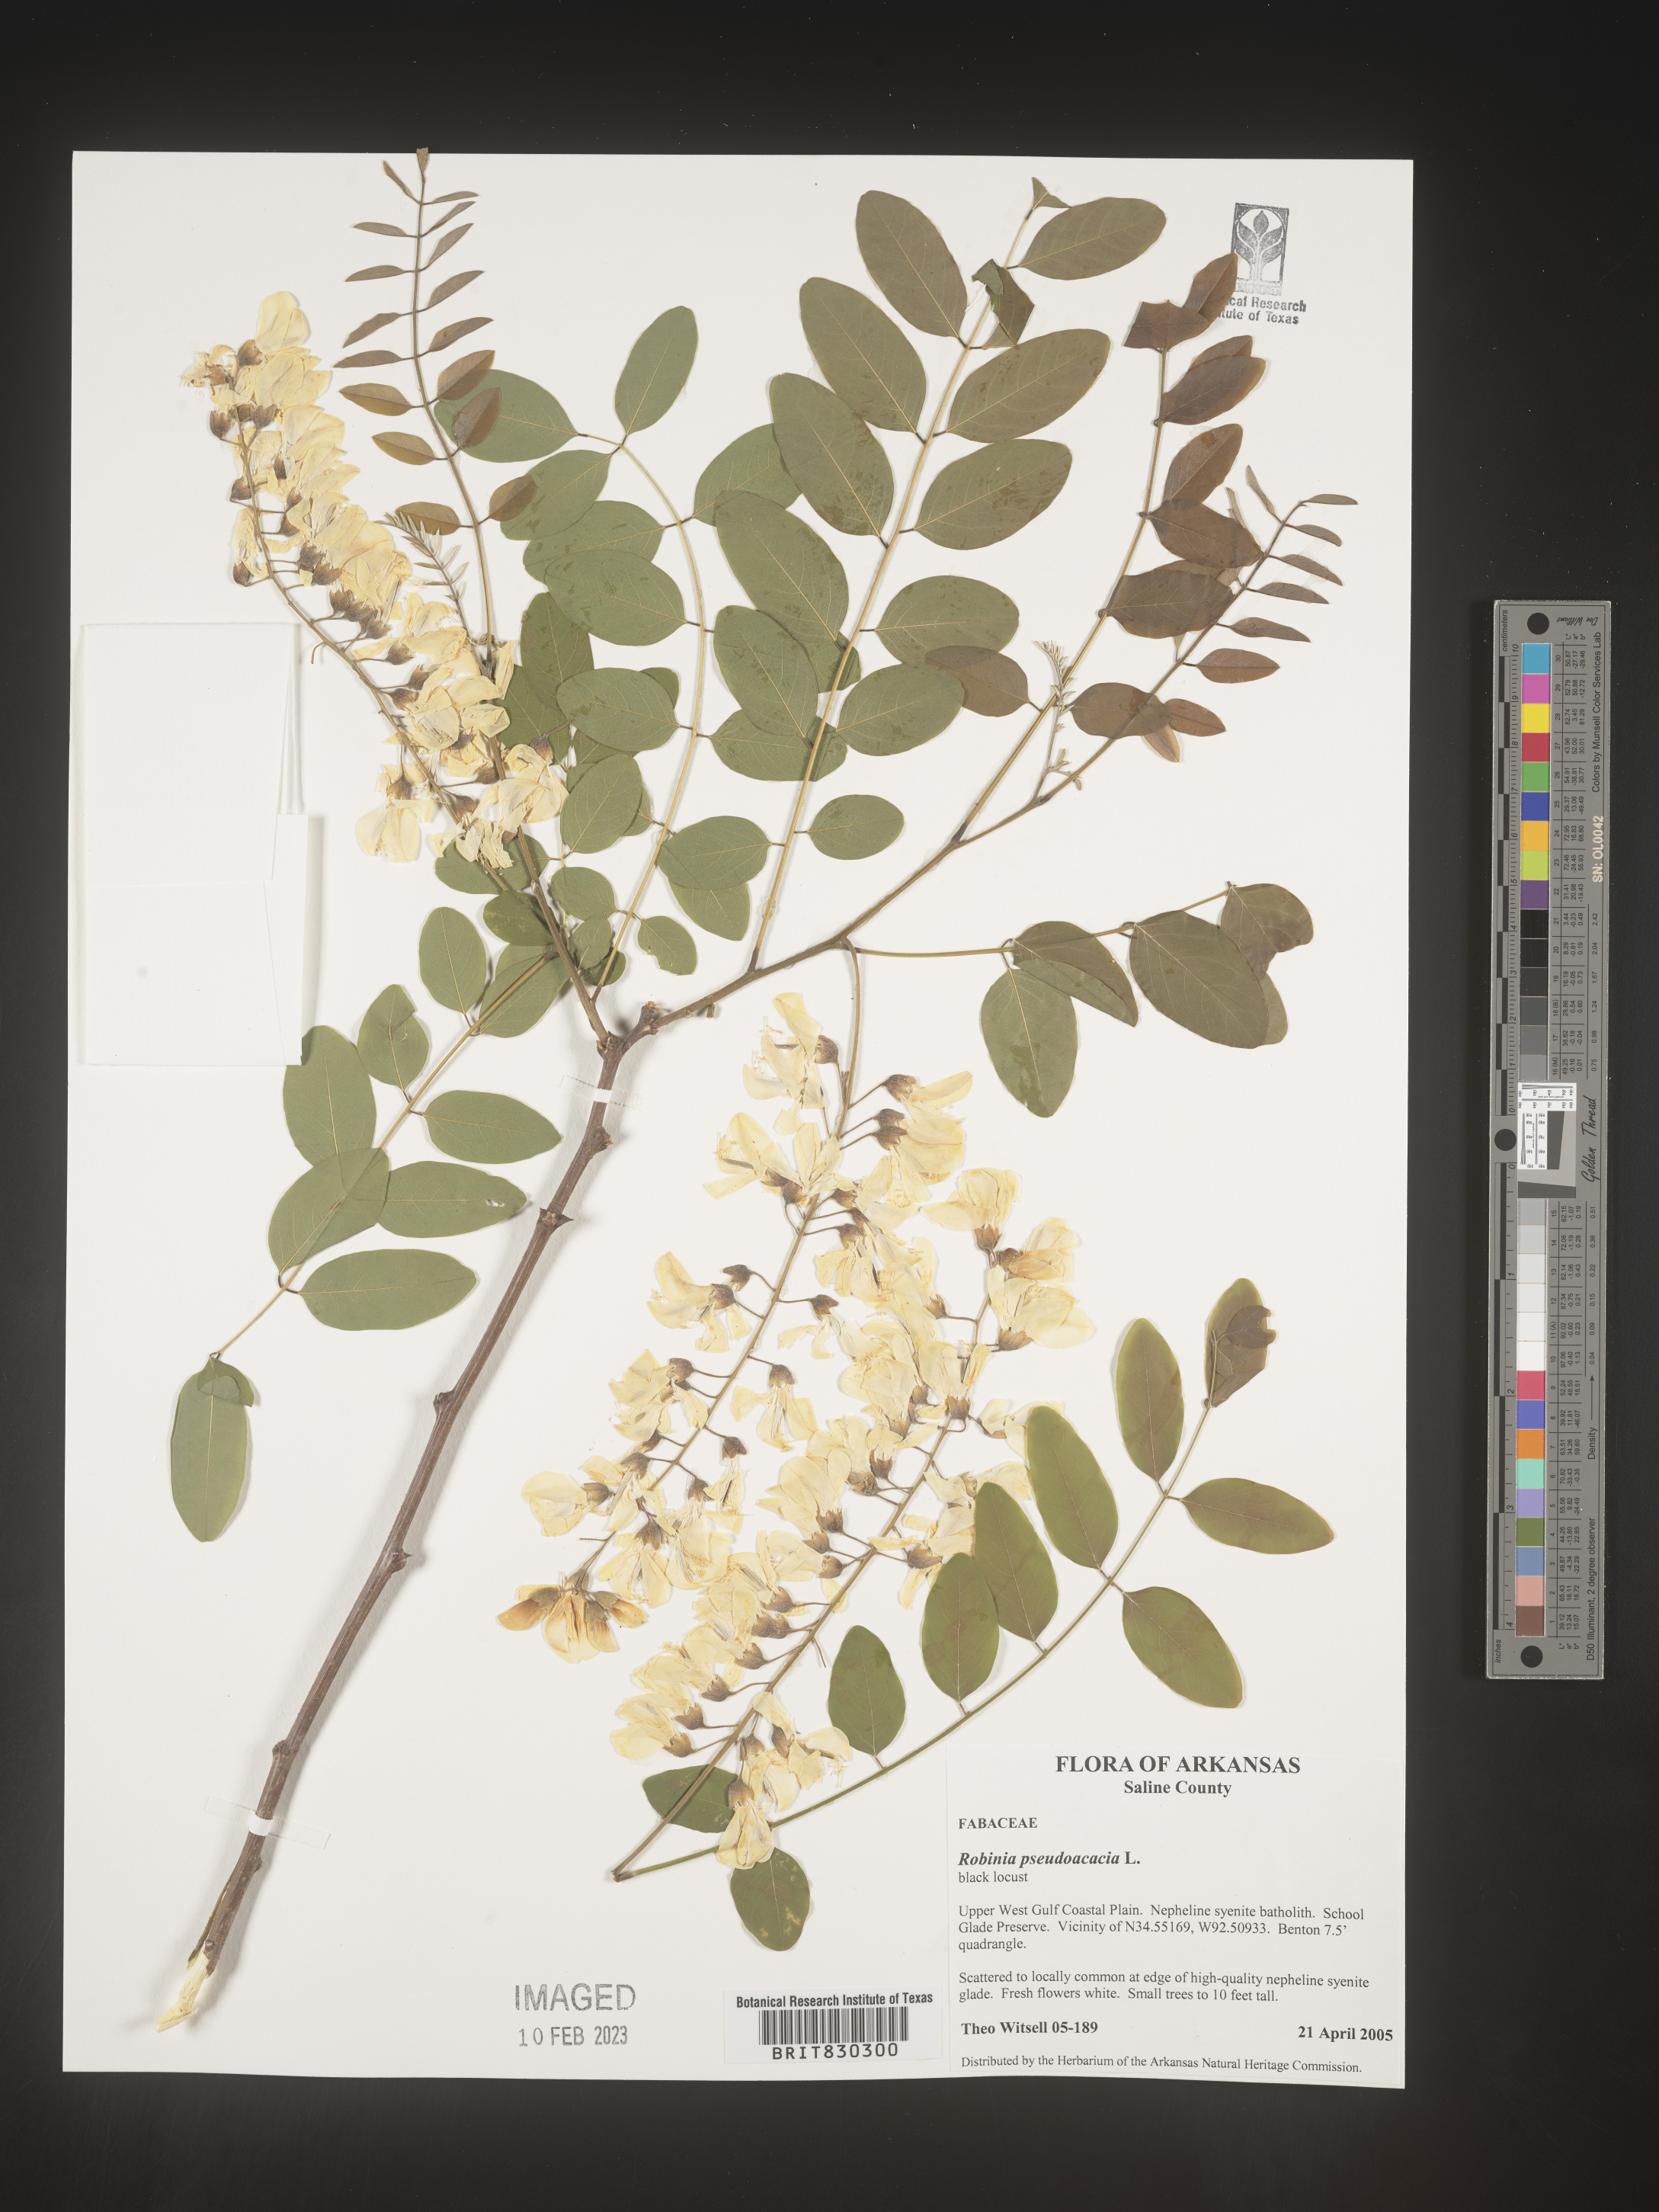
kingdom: Plantae
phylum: Tracheophyta
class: Magnoliopsida
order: Fabales
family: Fabaceae
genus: Robinia
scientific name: Robinia pseudoacacia
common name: Black locust
